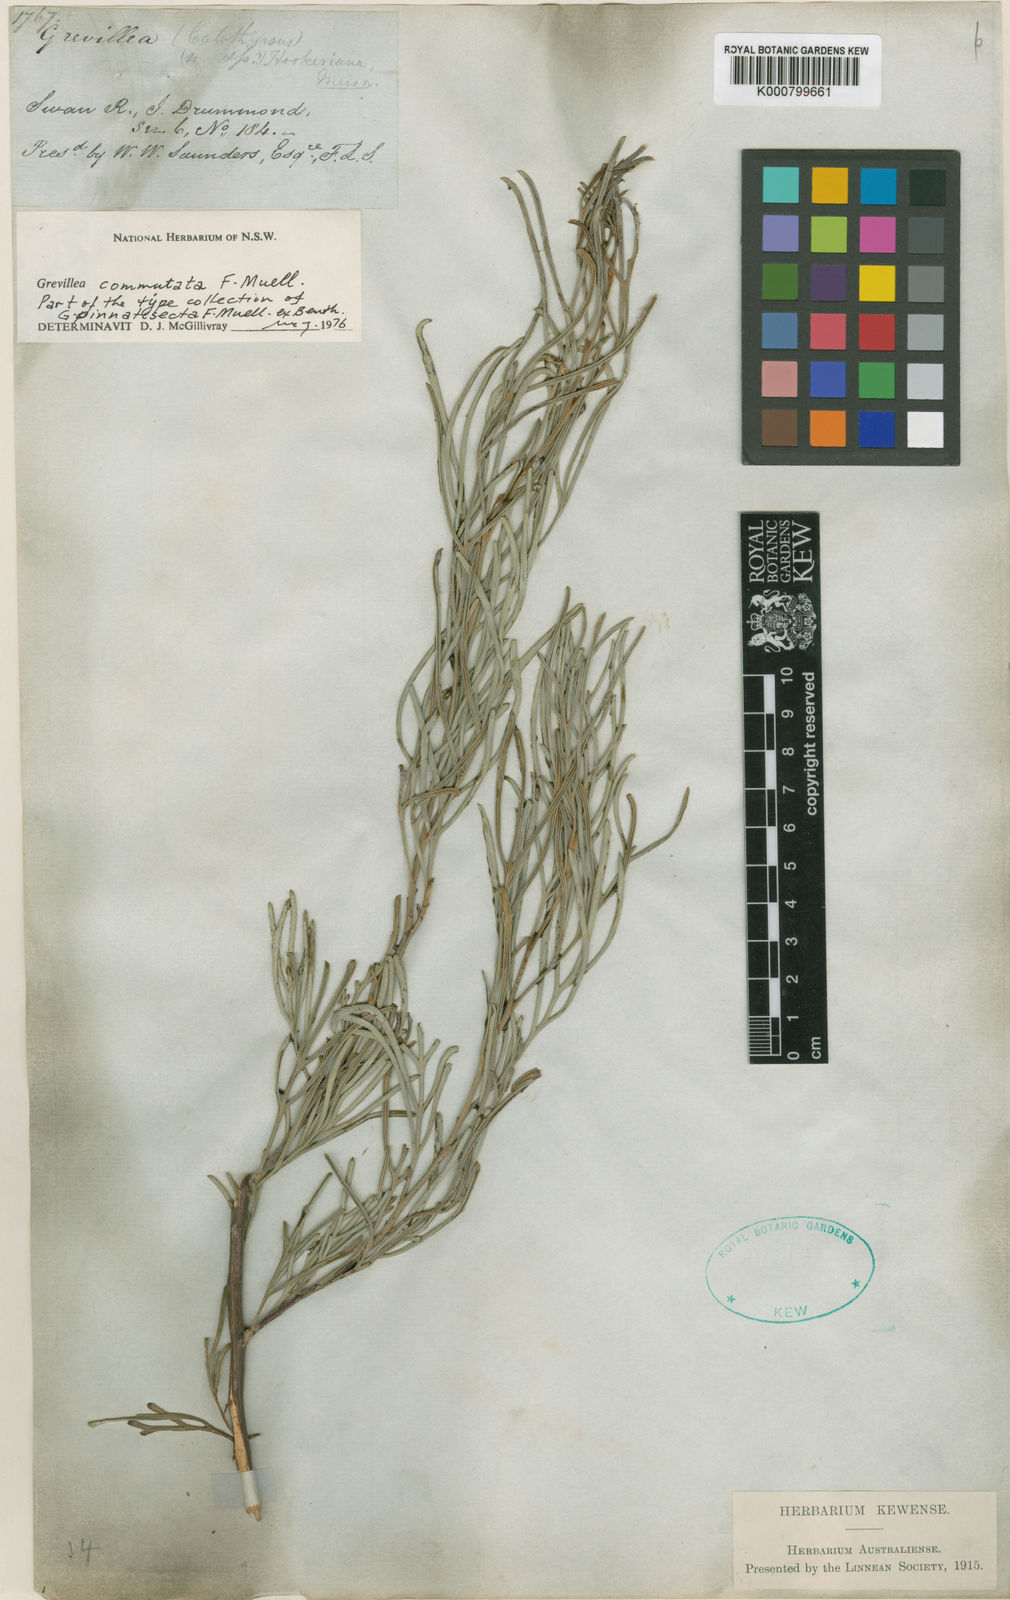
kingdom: Plantae
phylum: Tracheophyta
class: Magnoliopsida
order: Proteales
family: Proteaceae
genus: Grevillea
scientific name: Grevillea commutata
